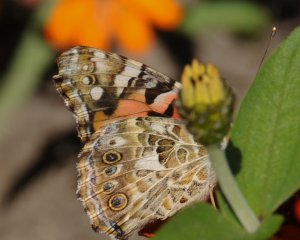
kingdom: Animalia
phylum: Arthropoda
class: Insecta
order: Lepidoptera
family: Nymphalidae
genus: Vanessa
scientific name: Vanessa cardui
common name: Painted Lady
